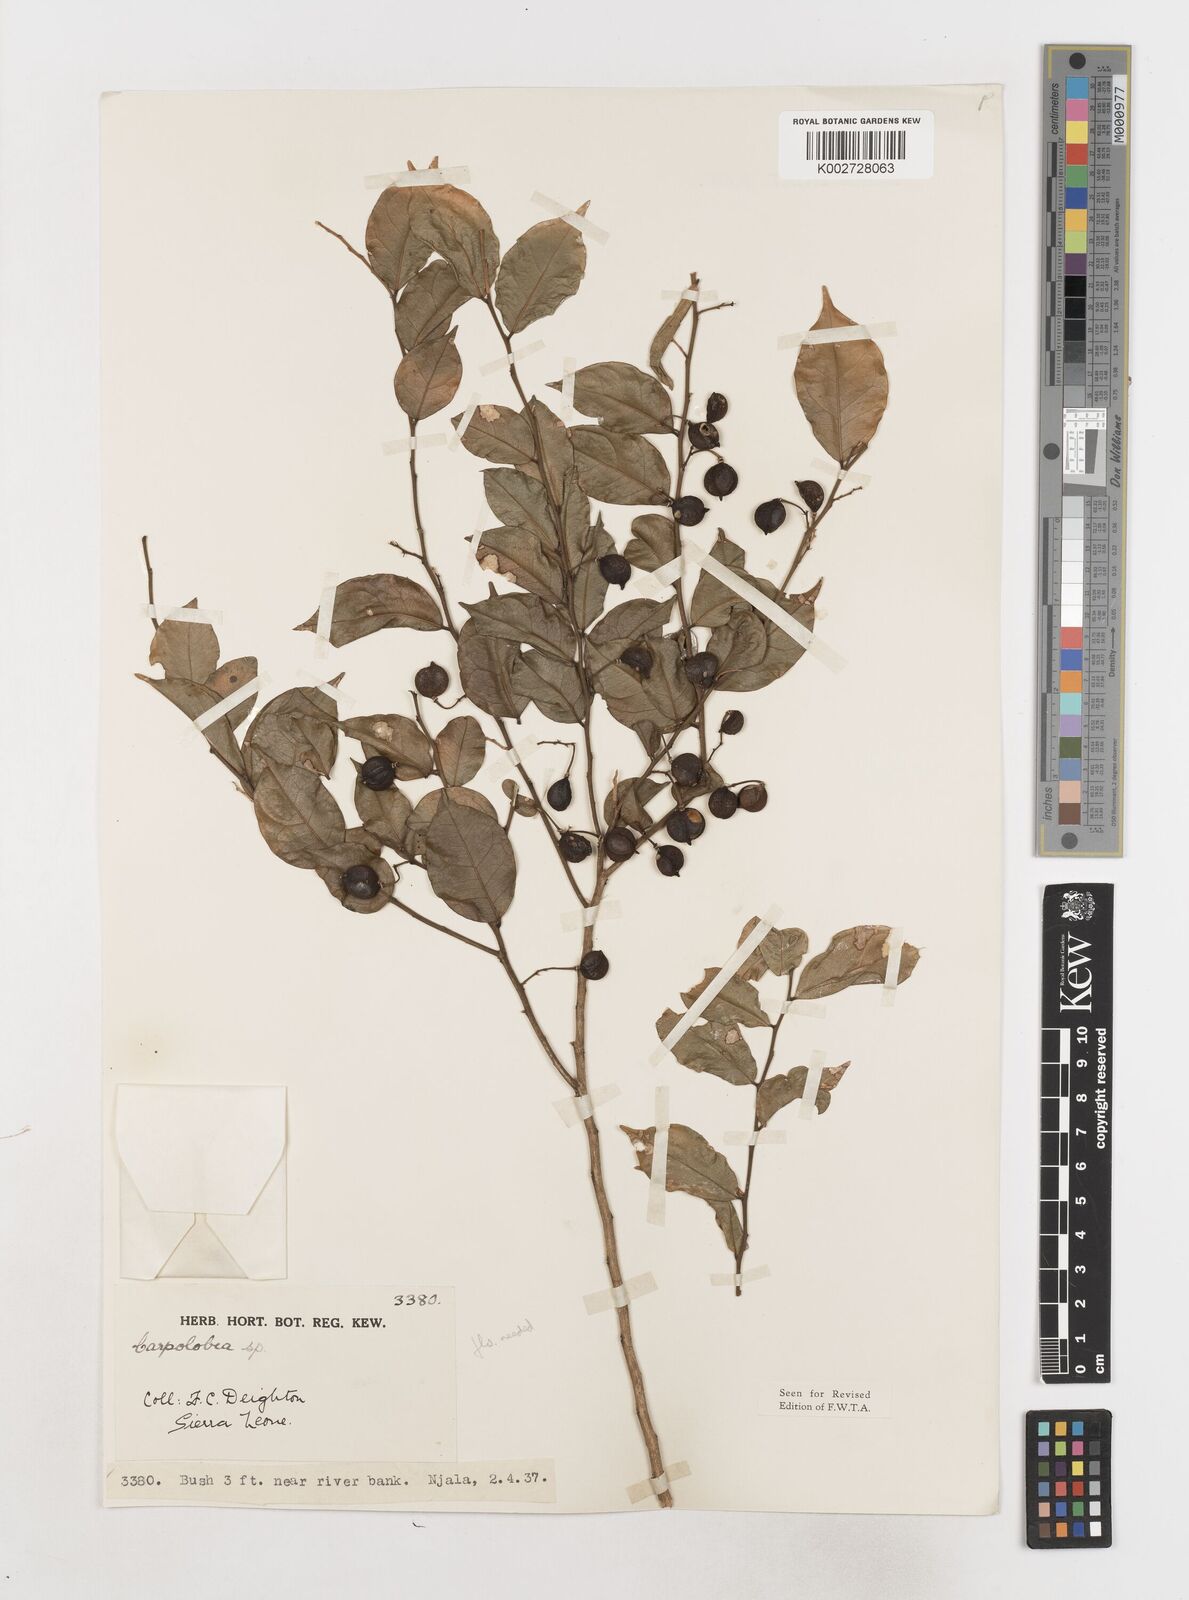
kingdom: Plantae
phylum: Tracheophyta
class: Magnoliopsida
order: Fabales
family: Polygalaceae
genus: Carpolobia
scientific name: Carpolobia
